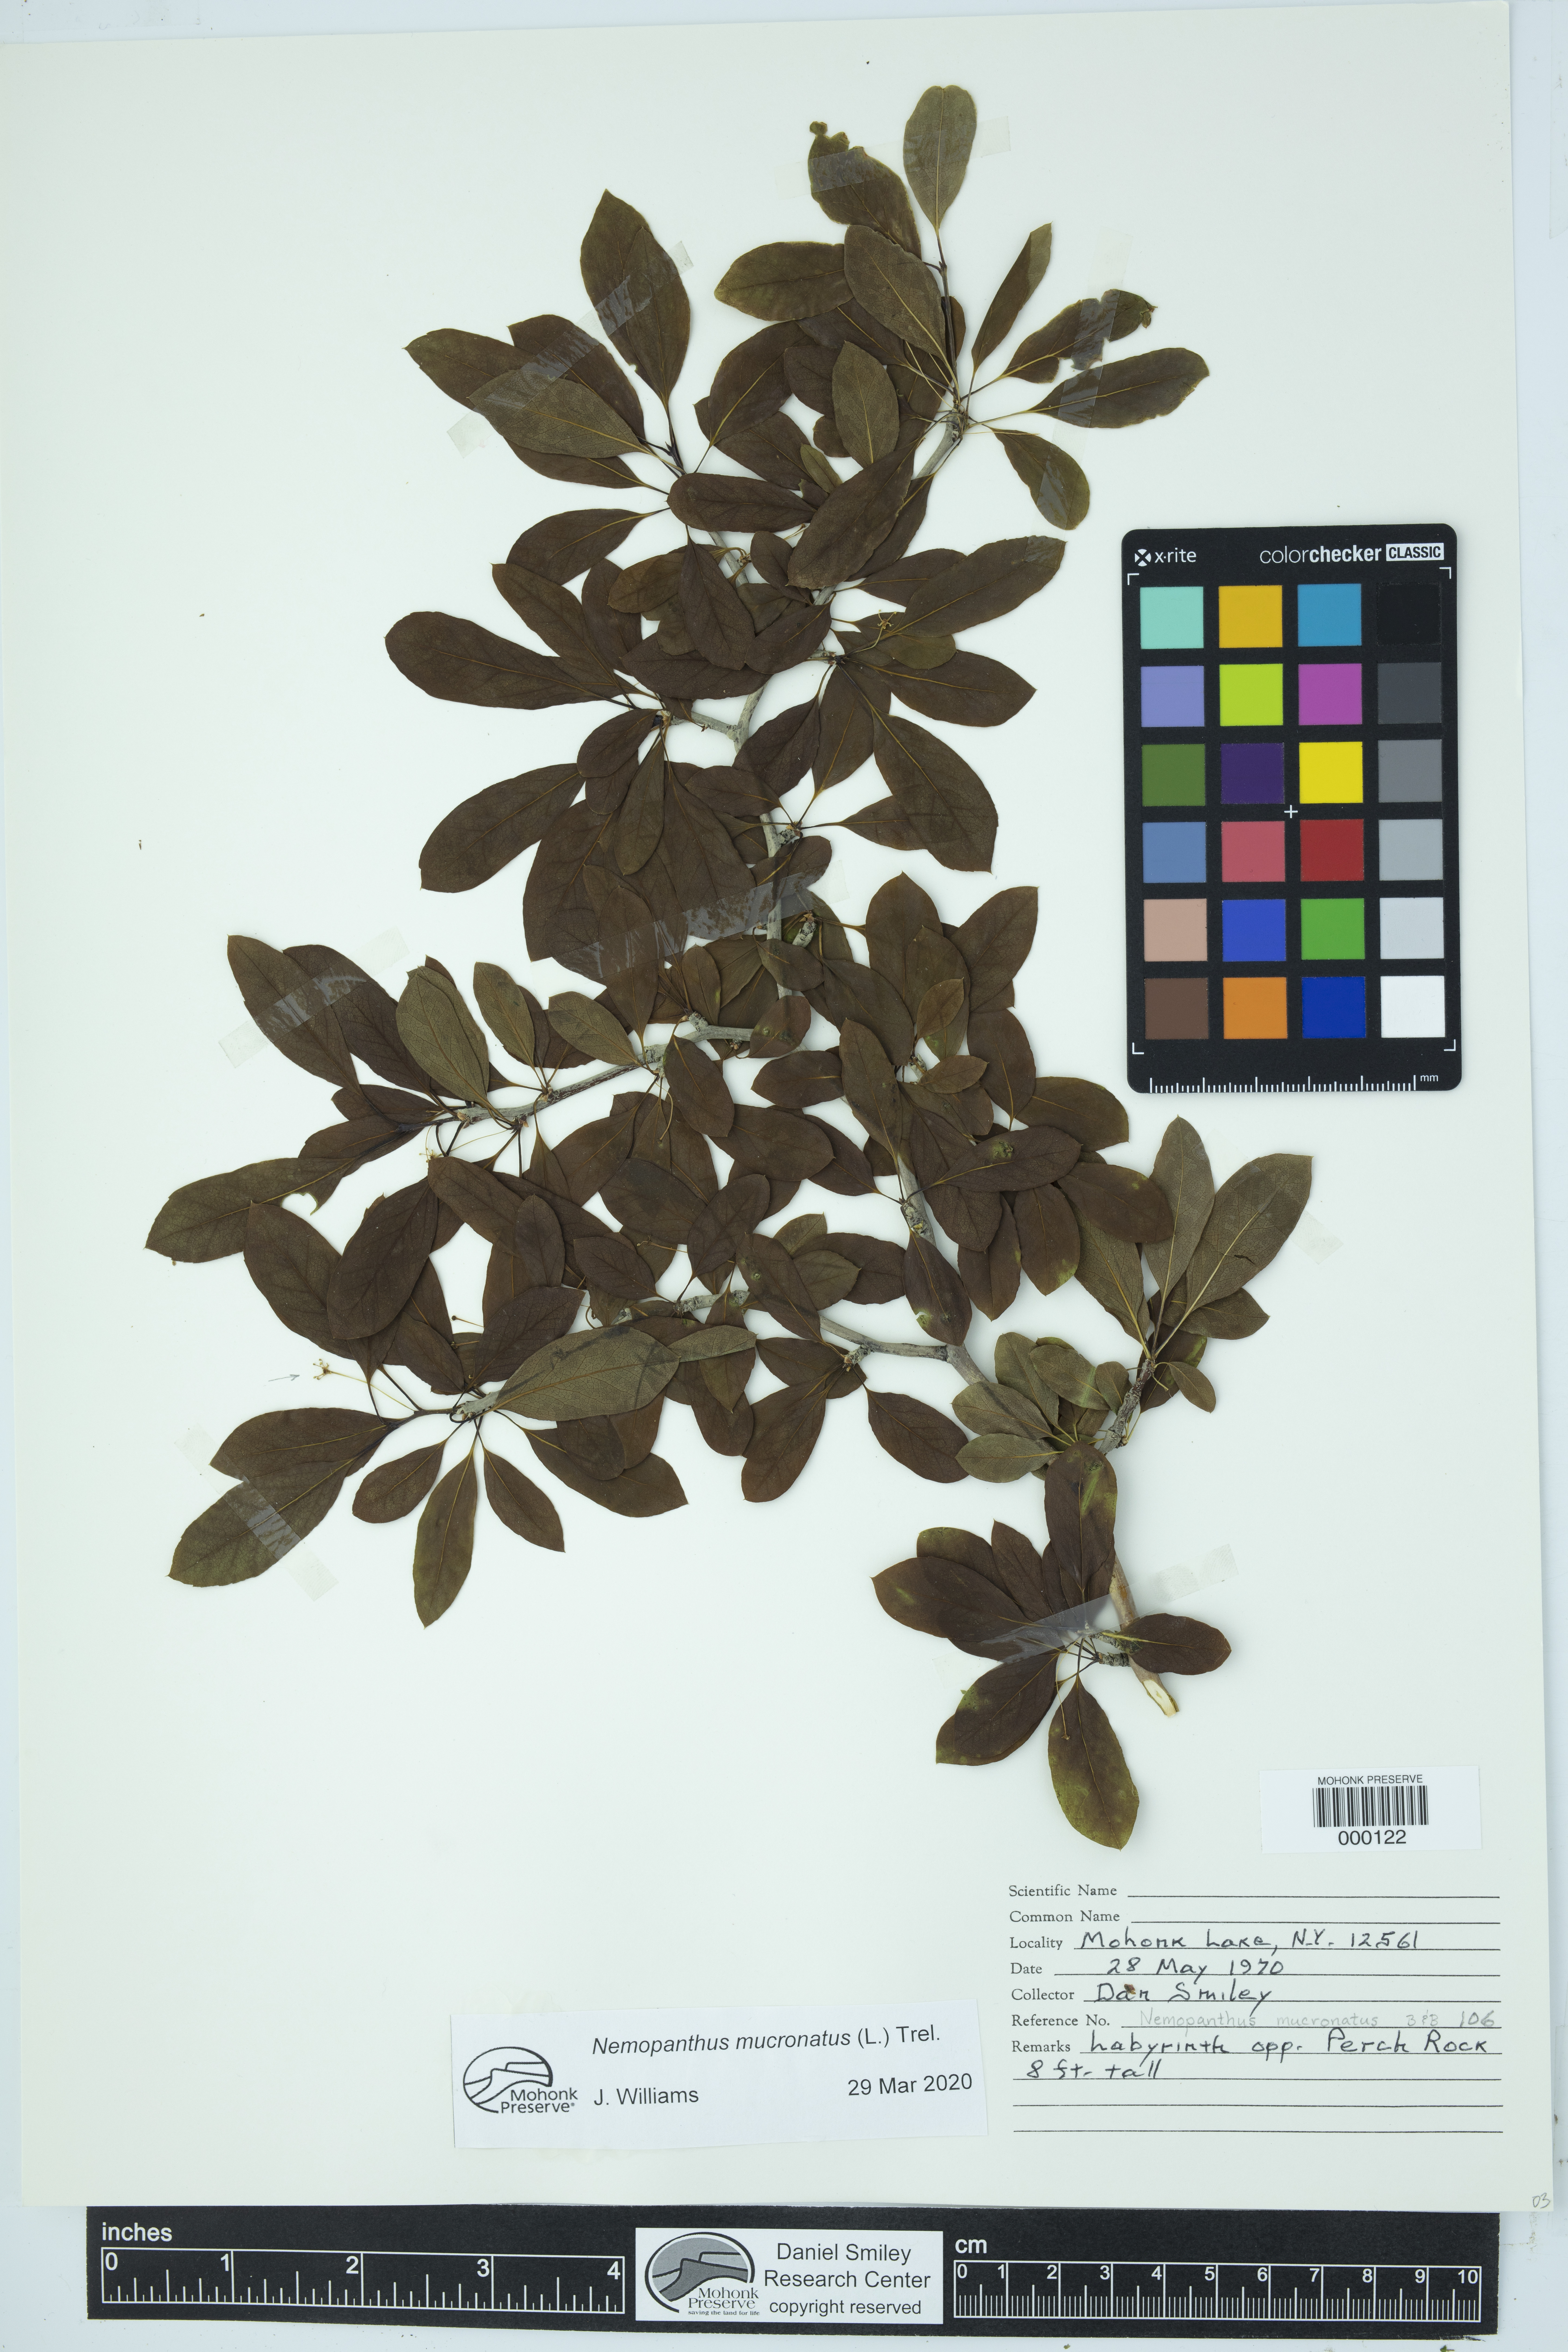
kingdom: Plantae
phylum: Tracheophyta
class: Magnoliopsida
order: Aquifoliales
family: Aquifoliaceae
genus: Ilex
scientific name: Ilex mucronata
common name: Catberry
